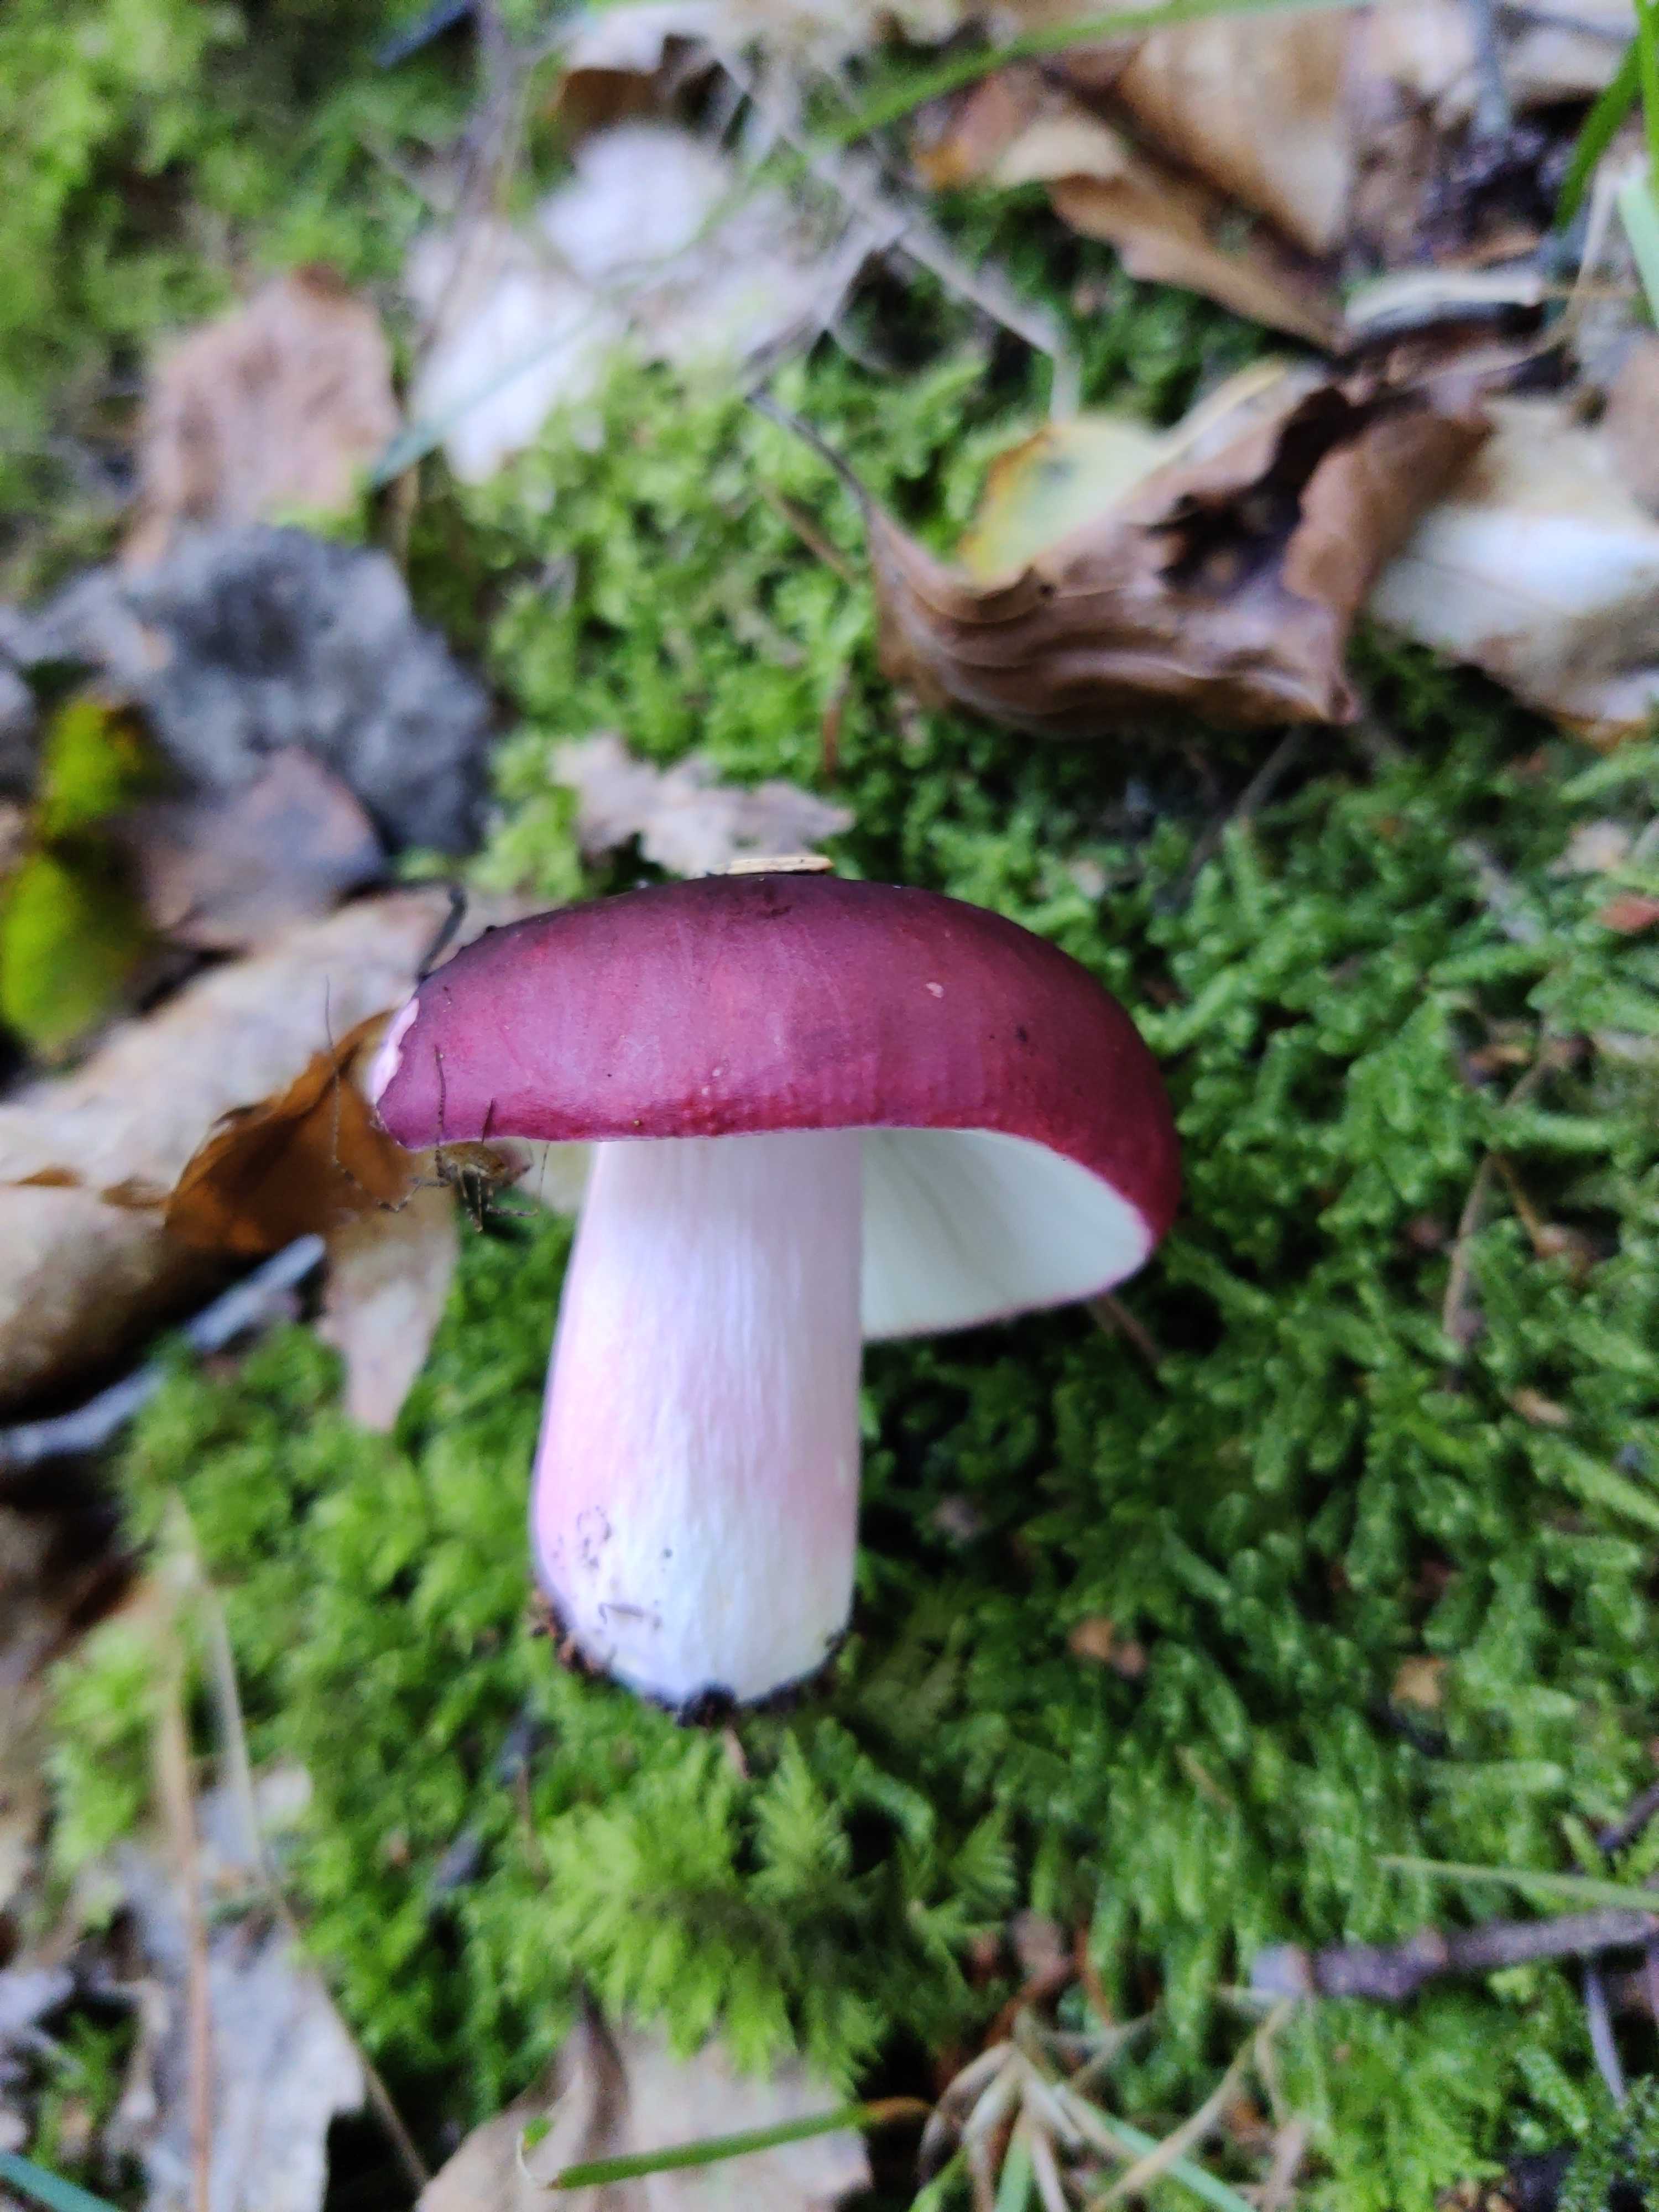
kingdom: Fungi
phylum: Basidiomycota
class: Agaricomycetes
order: Russulales
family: Russulaceae
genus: Russula
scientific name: Russula xerampelina
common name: hummer-skørhat
